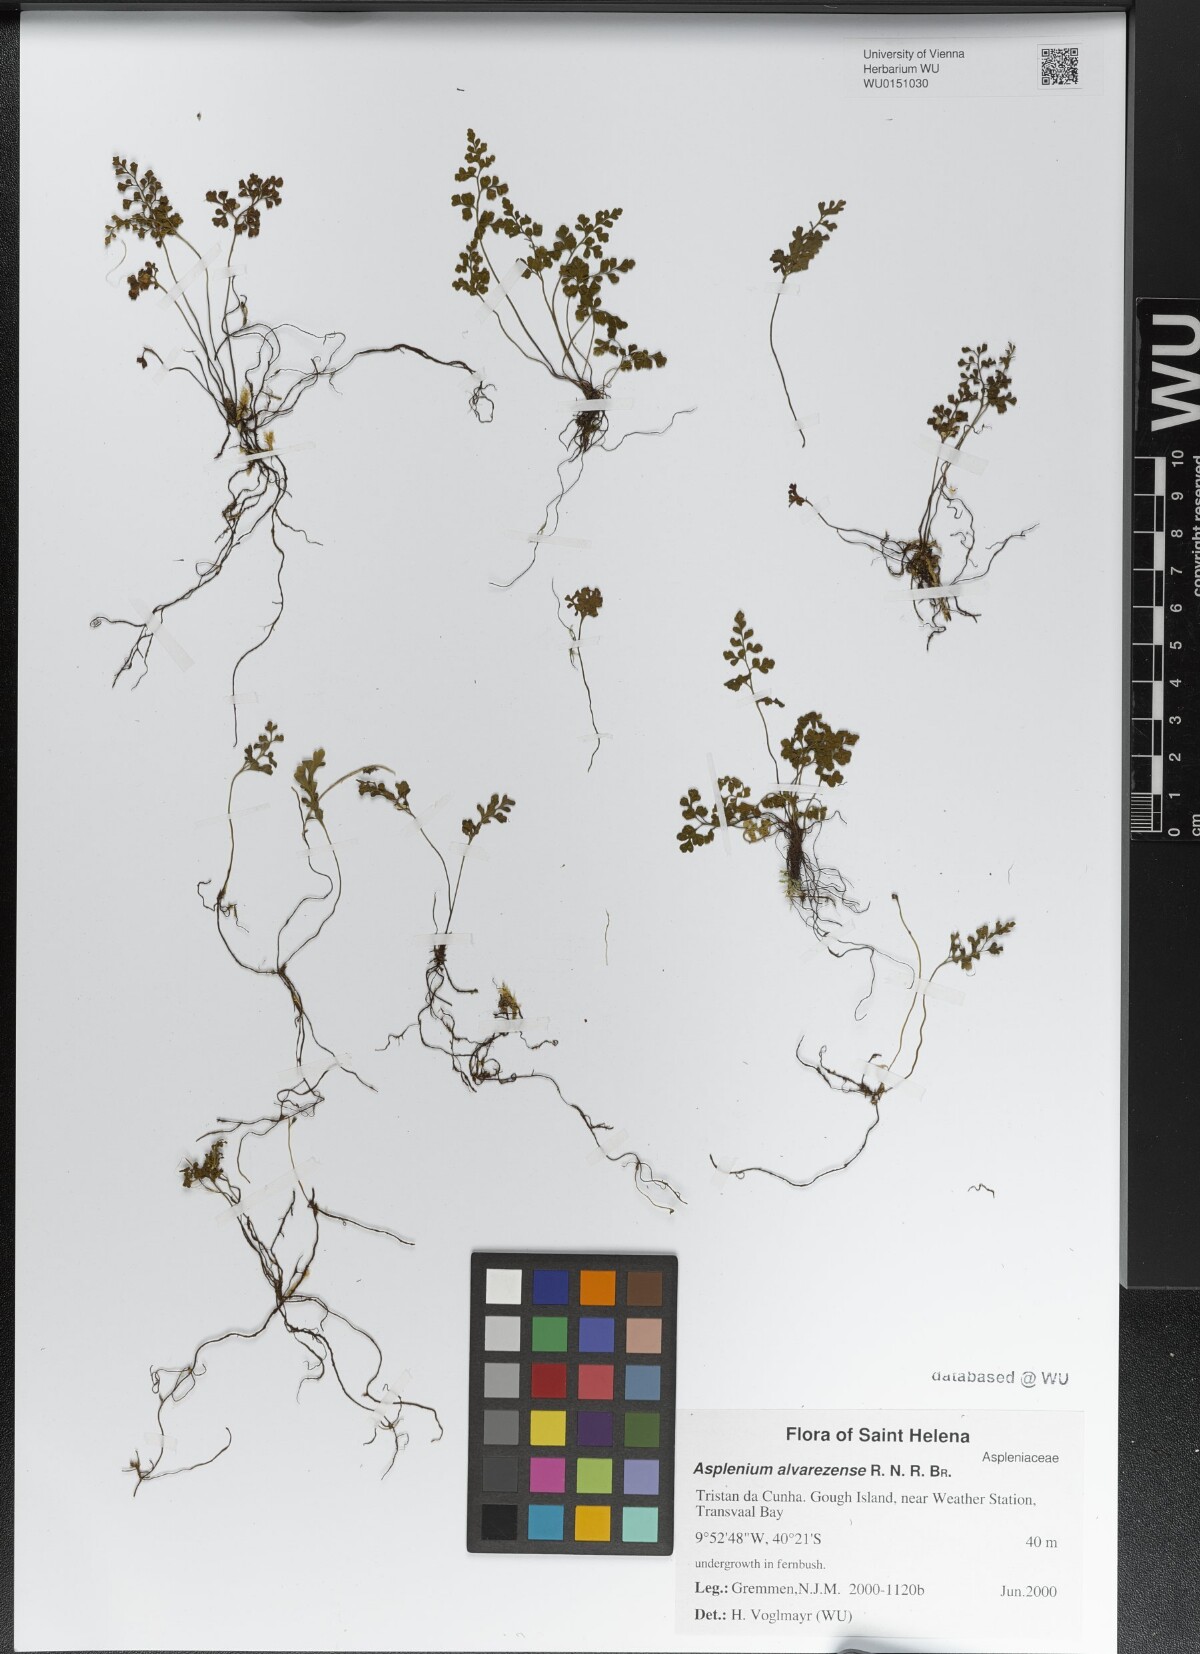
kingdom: Plantae
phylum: Tracheophyta
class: Polypodiopsida
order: Polypodiales
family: Aspleniaceae
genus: Asplenium
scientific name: Asplenium alvarezense
